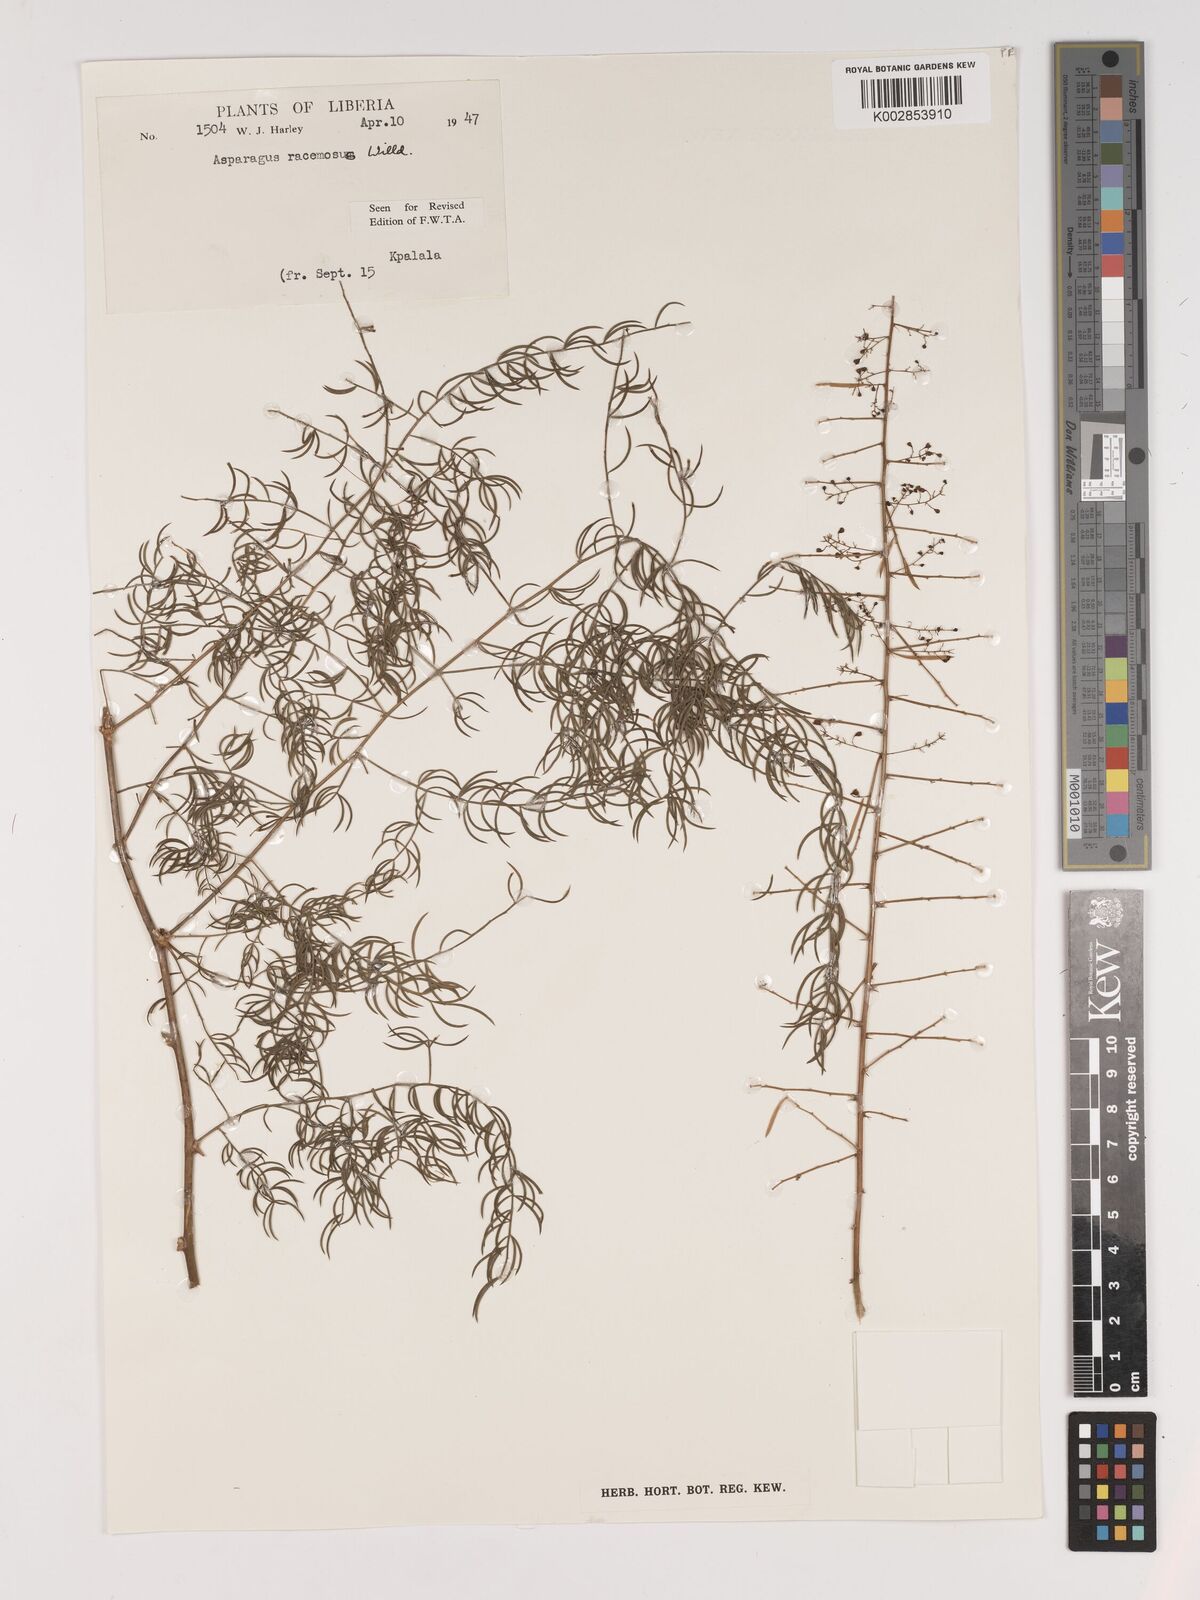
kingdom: Plantae
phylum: Tracheophyta
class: Liliopsida
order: Asparagales
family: Asparagaceae
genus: Asparagus
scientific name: Asparagus racemosus
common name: Asparagus-fern
